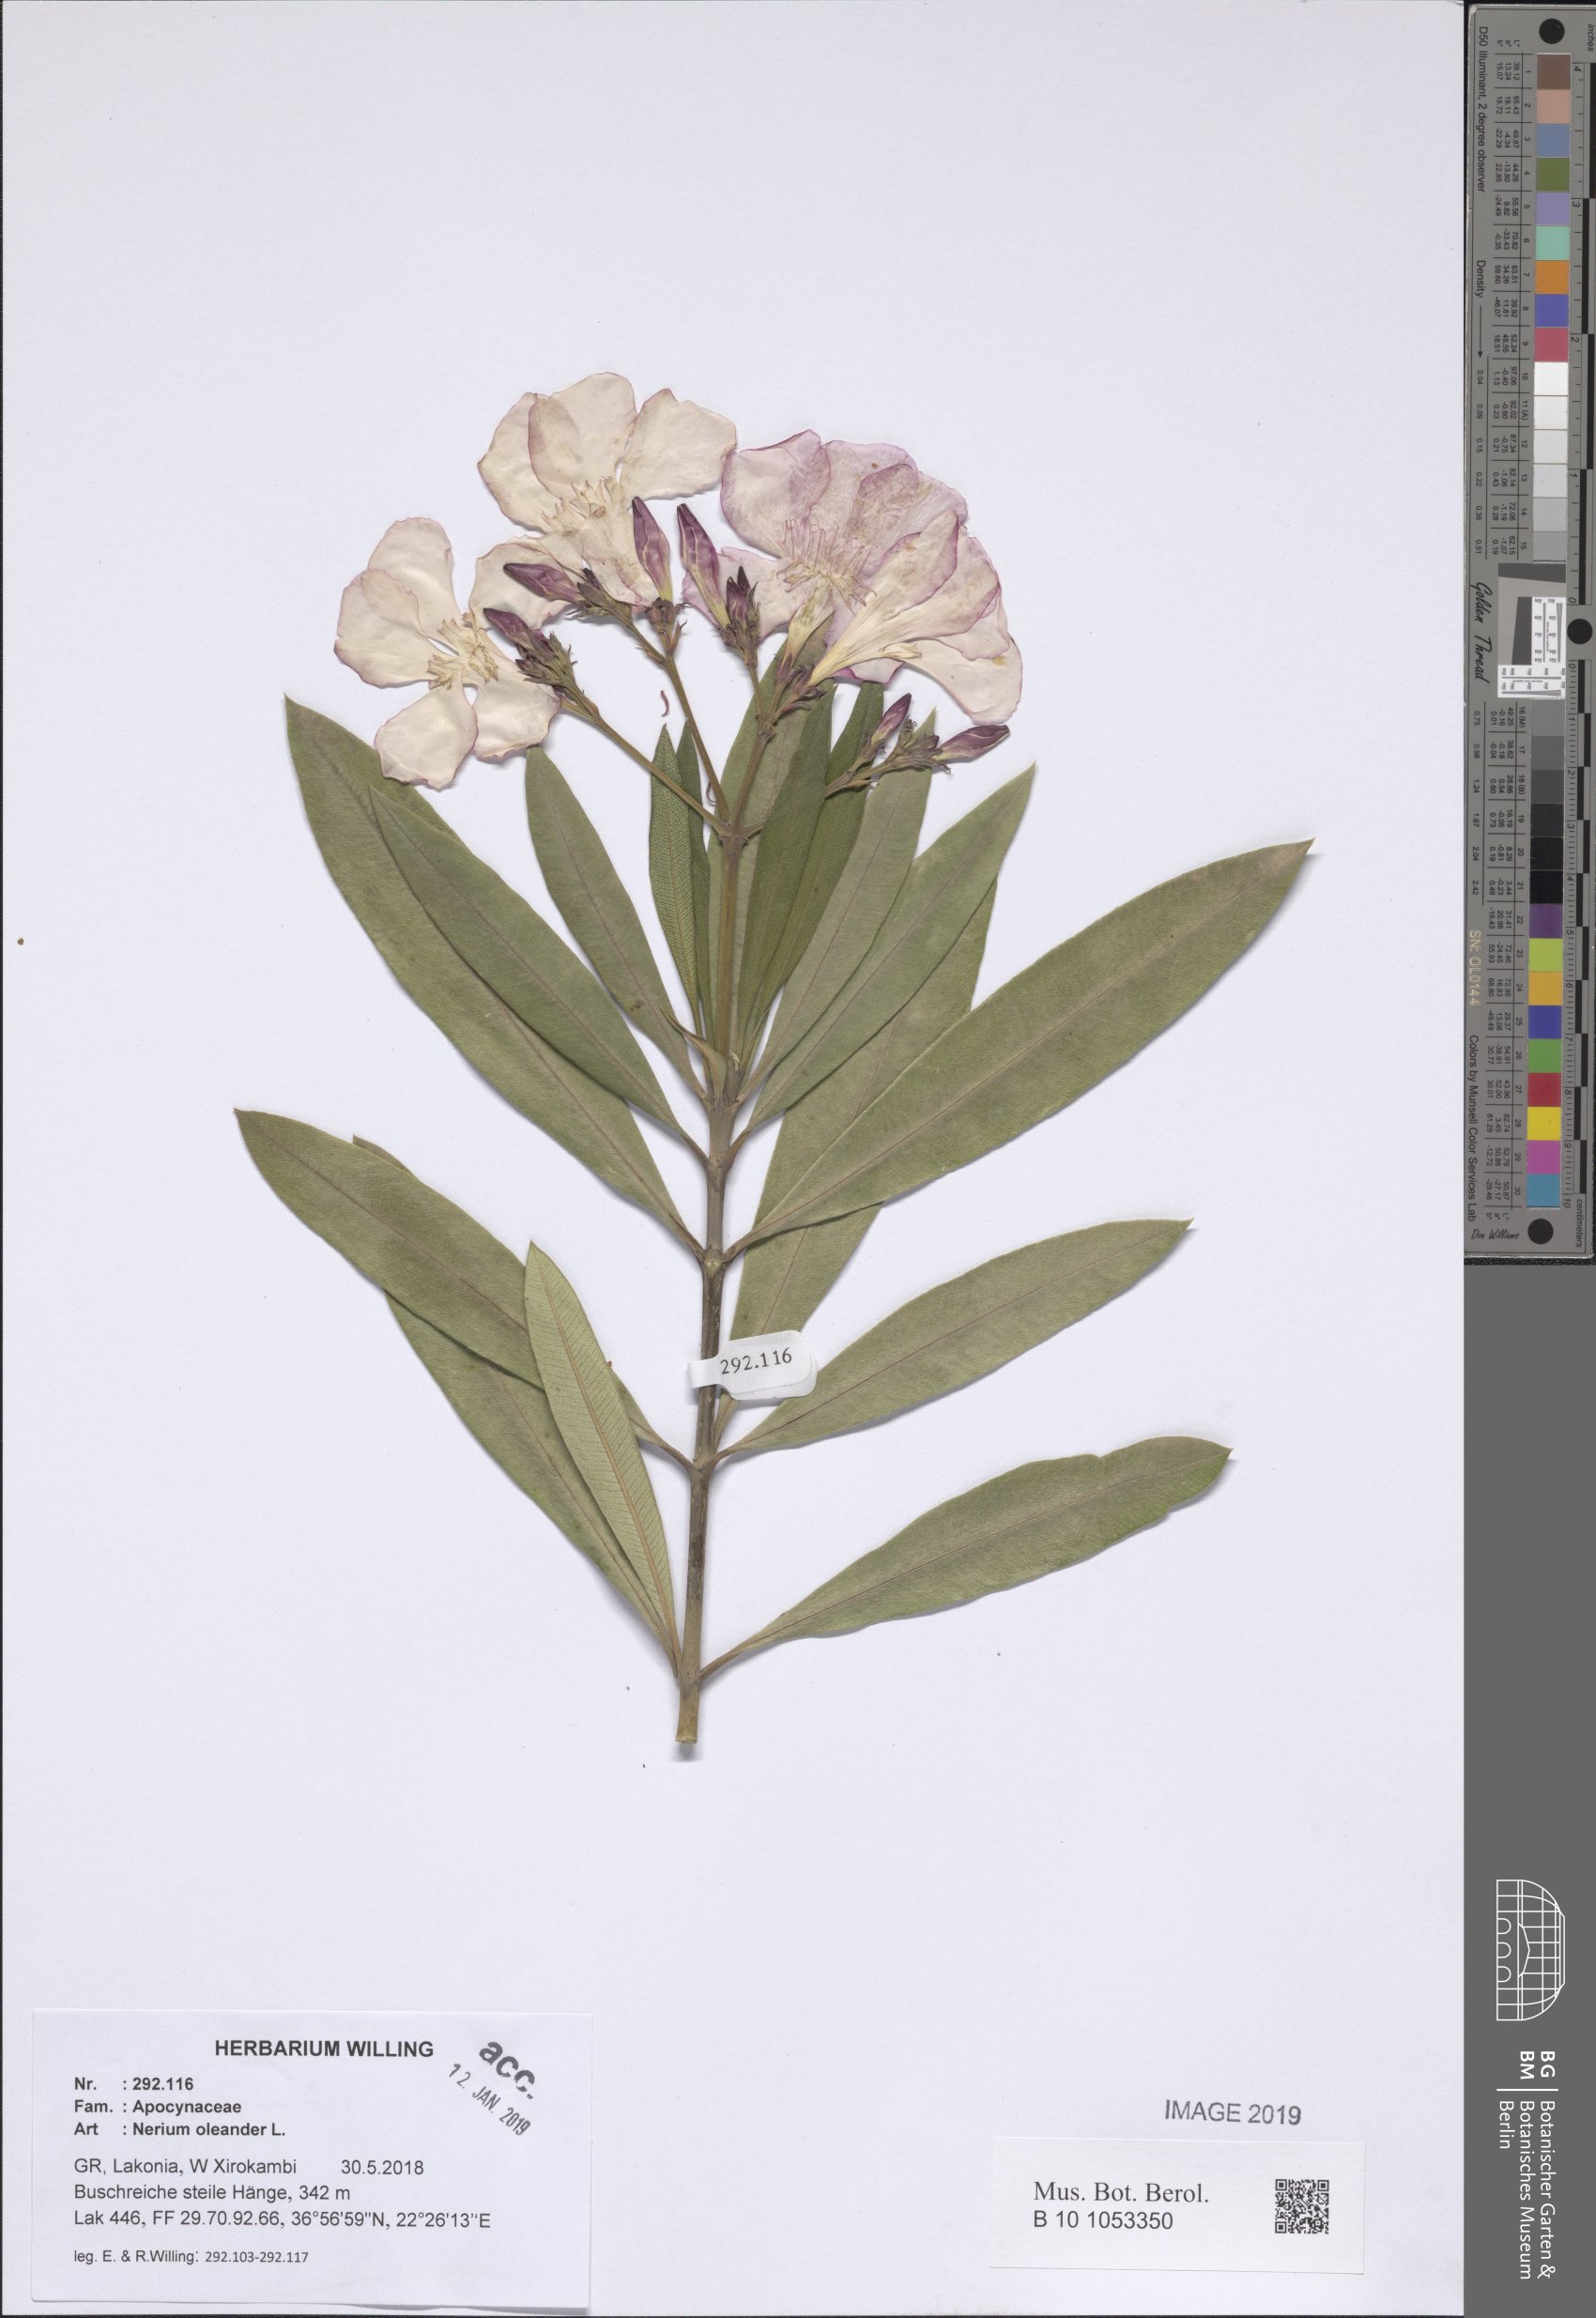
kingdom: Plantae
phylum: Tracheophyta
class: Magnoliopsida
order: Gentianales
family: Apocynaceae
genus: Nerium
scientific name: Nerium oleander
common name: Oleander
